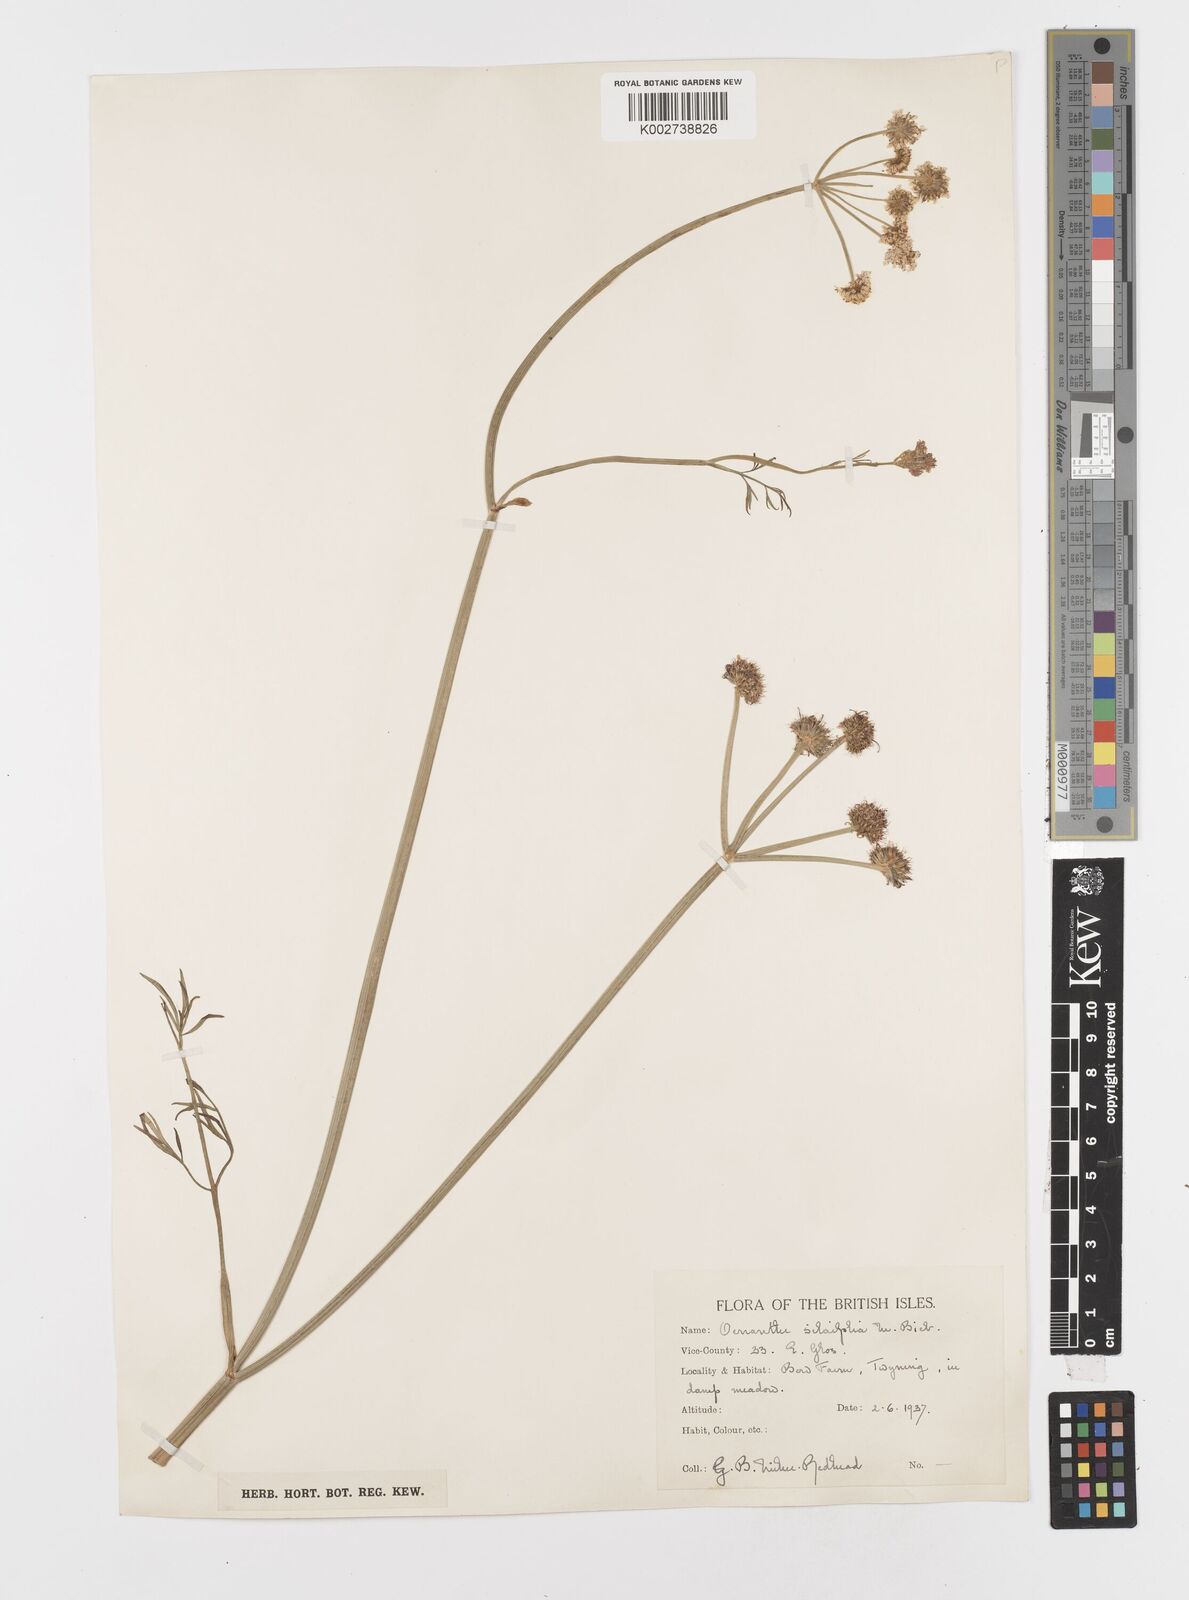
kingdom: Plantae
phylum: Tracheophyta
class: Magnoliopsida
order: Apiales
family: Apiaceae
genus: Oenanthe
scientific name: Oenanthe silaifolia
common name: Narrow-leaved water-dropwort
